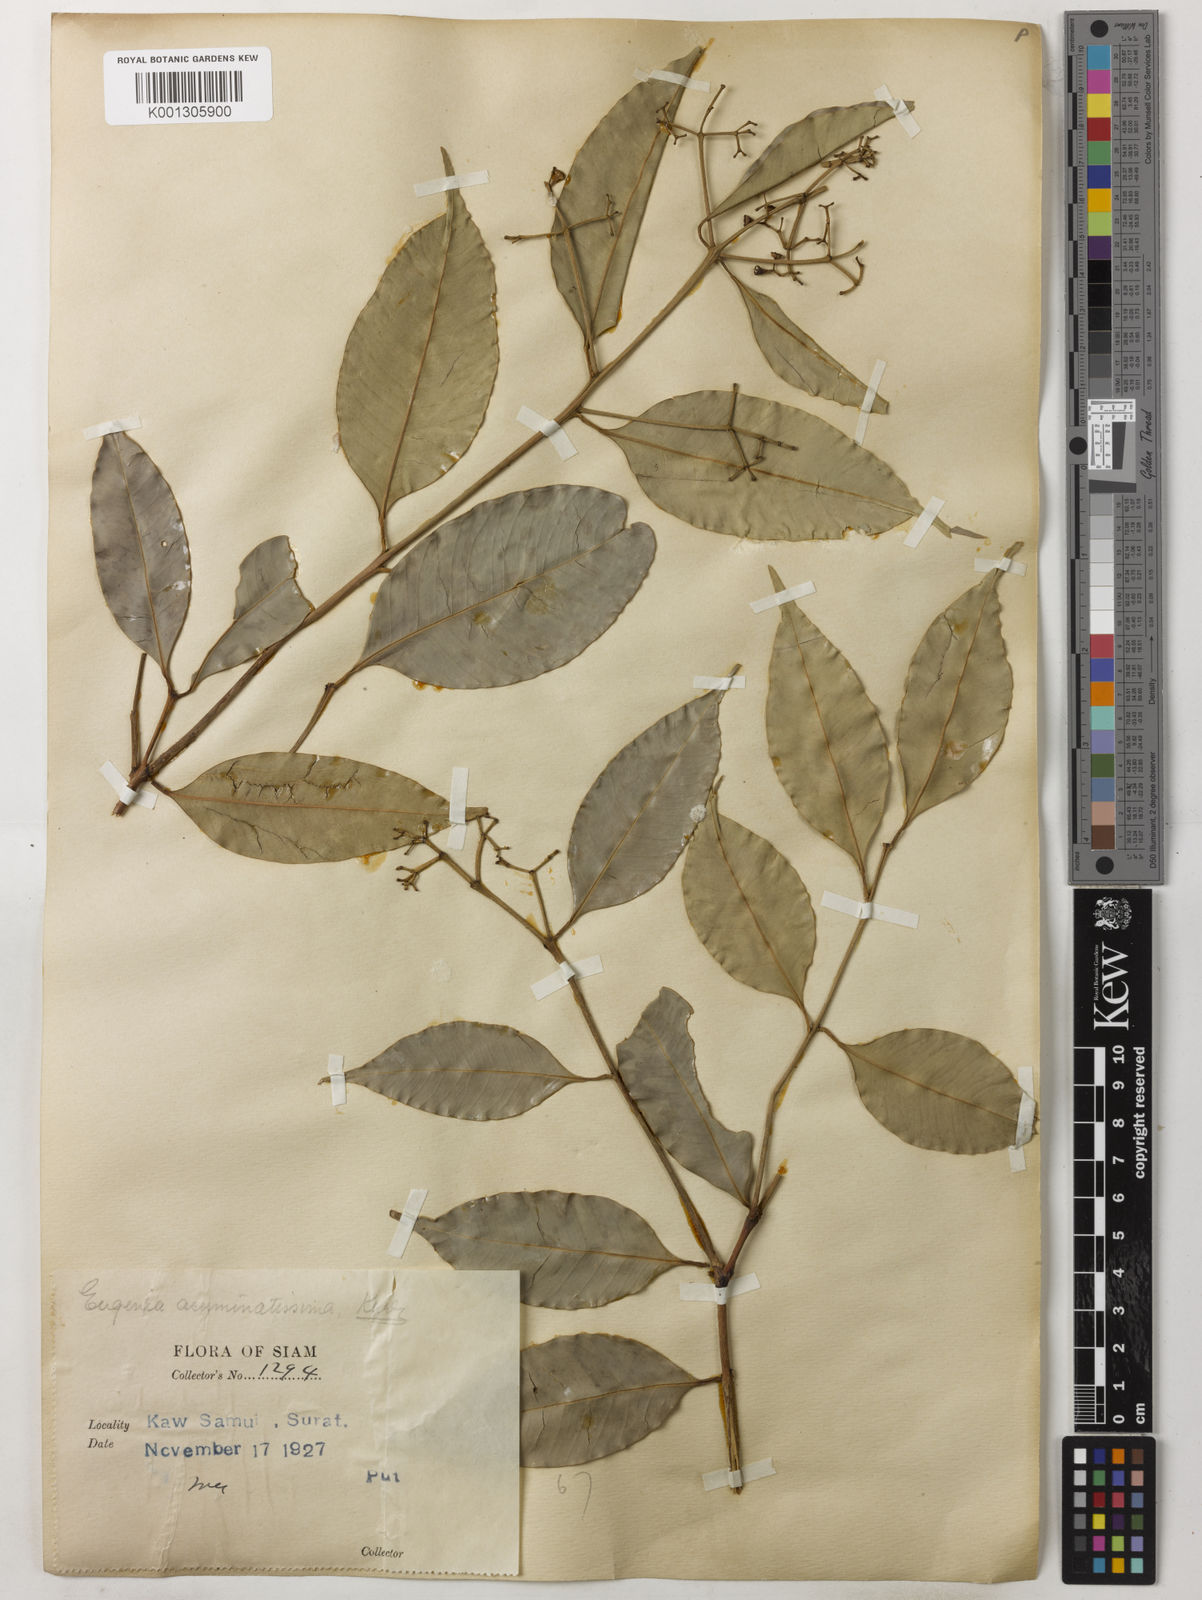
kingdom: Plantae
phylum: Tracheophyta
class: Magnoliopsida
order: Myrtales
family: Myrtaceae
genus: Syzygium
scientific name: Syzygium acuminatissimum
